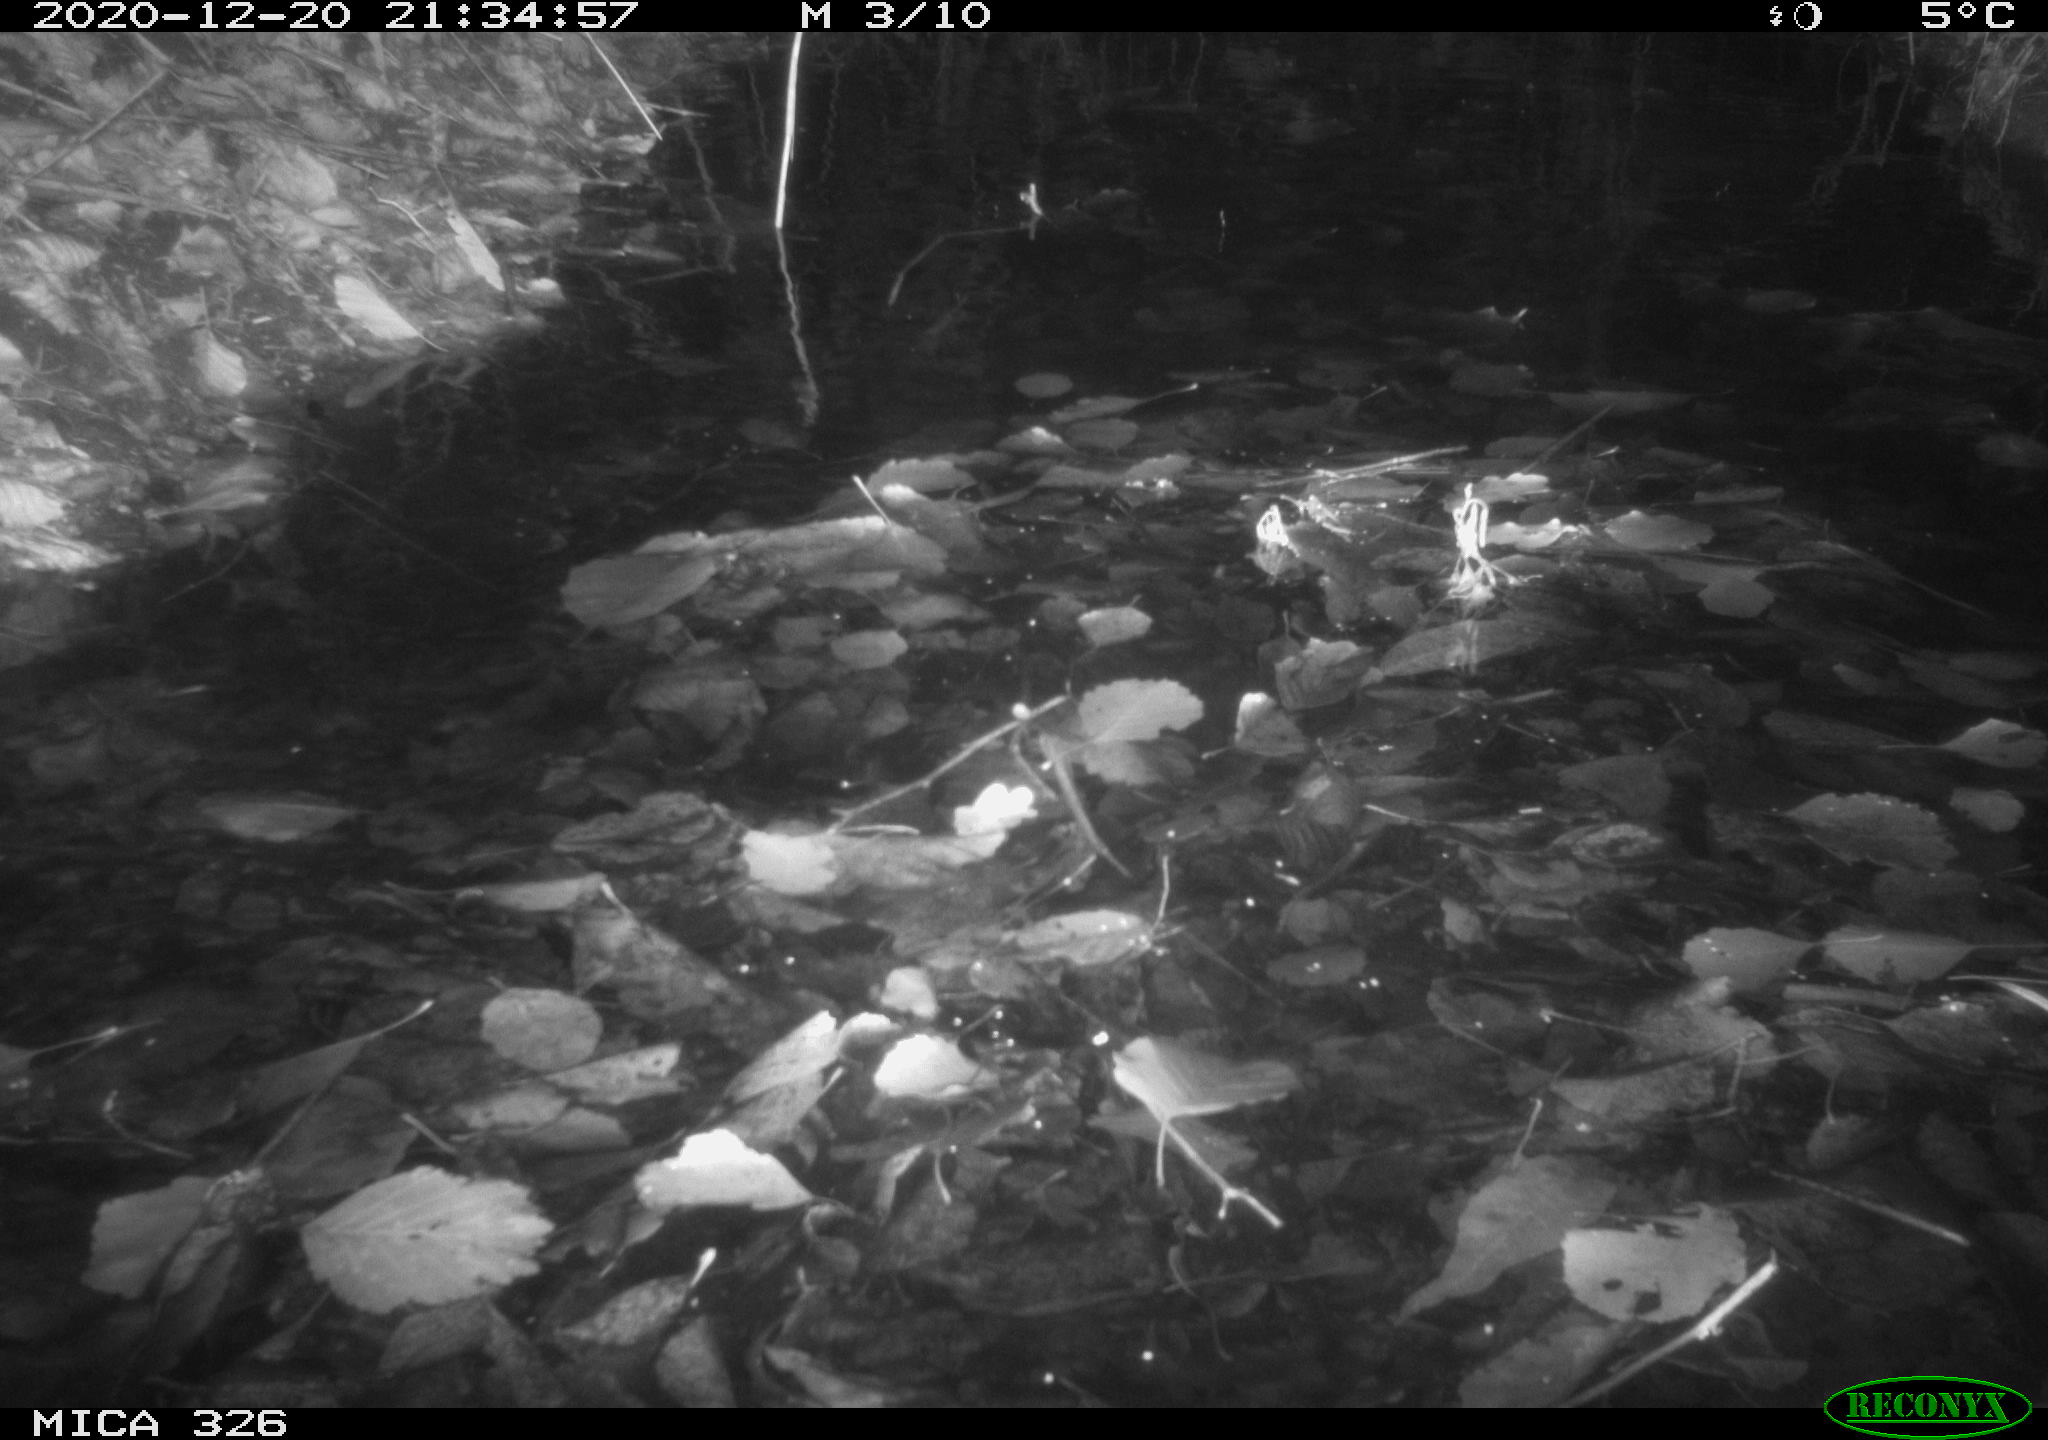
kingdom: Animalia
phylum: Chordata
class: Mammalia
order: Rodentia
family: Cricetidae
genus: Ondatra
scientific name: Ondatra zibethicus
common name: Muskrat
